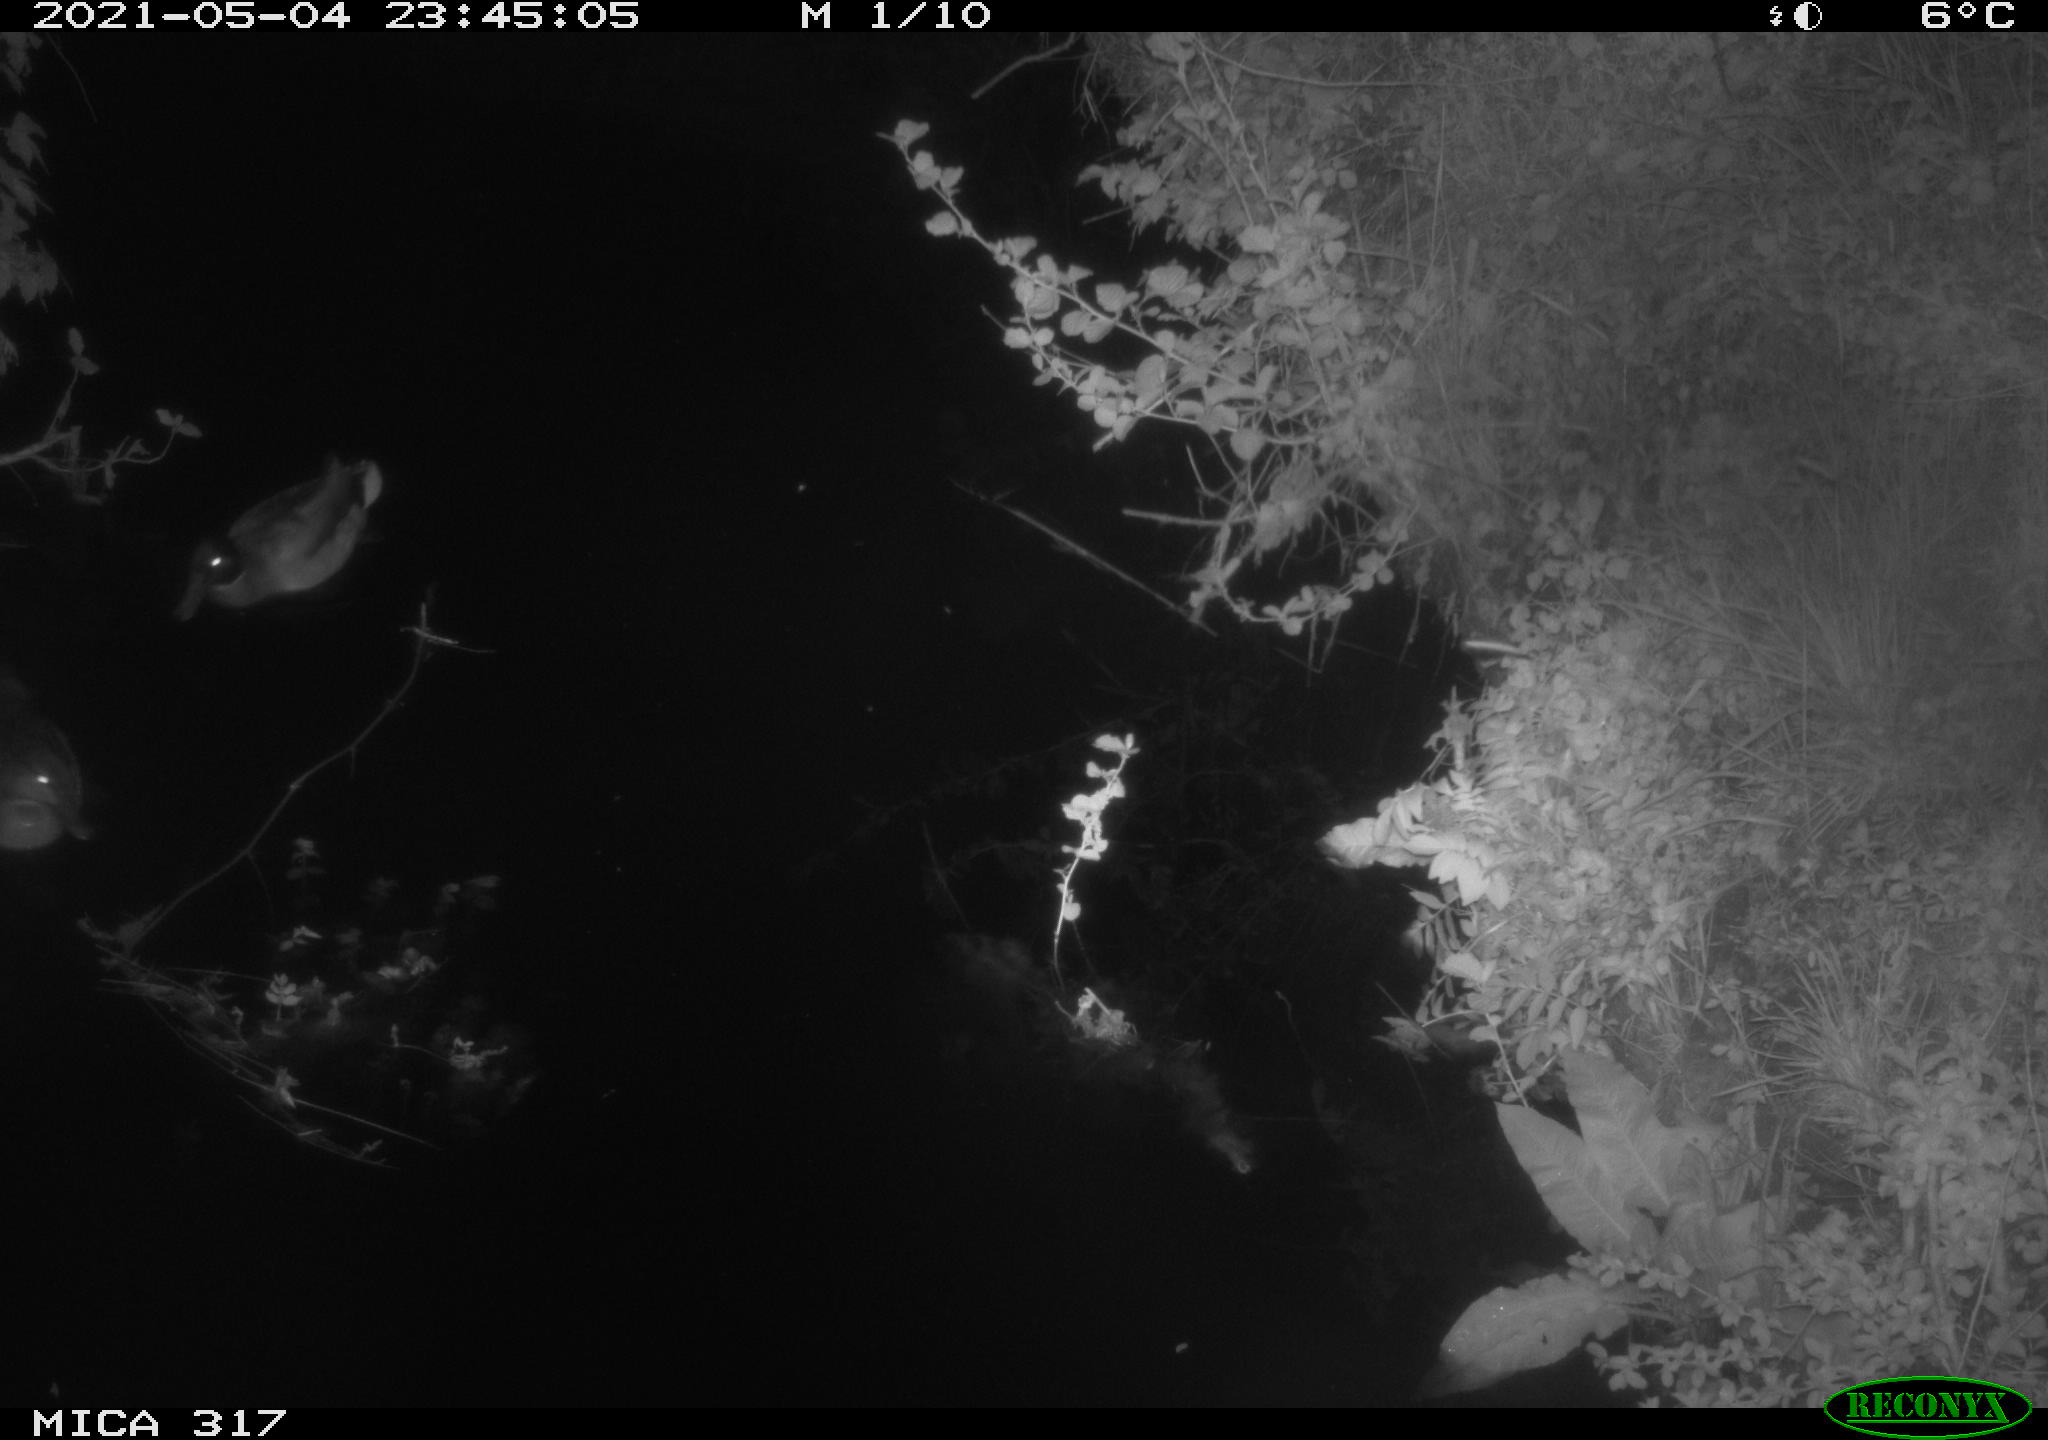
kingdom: Animalia
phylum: Chordata
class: Aves
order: Anseriformes
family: Anatidae
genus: Anas
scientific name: Anas
